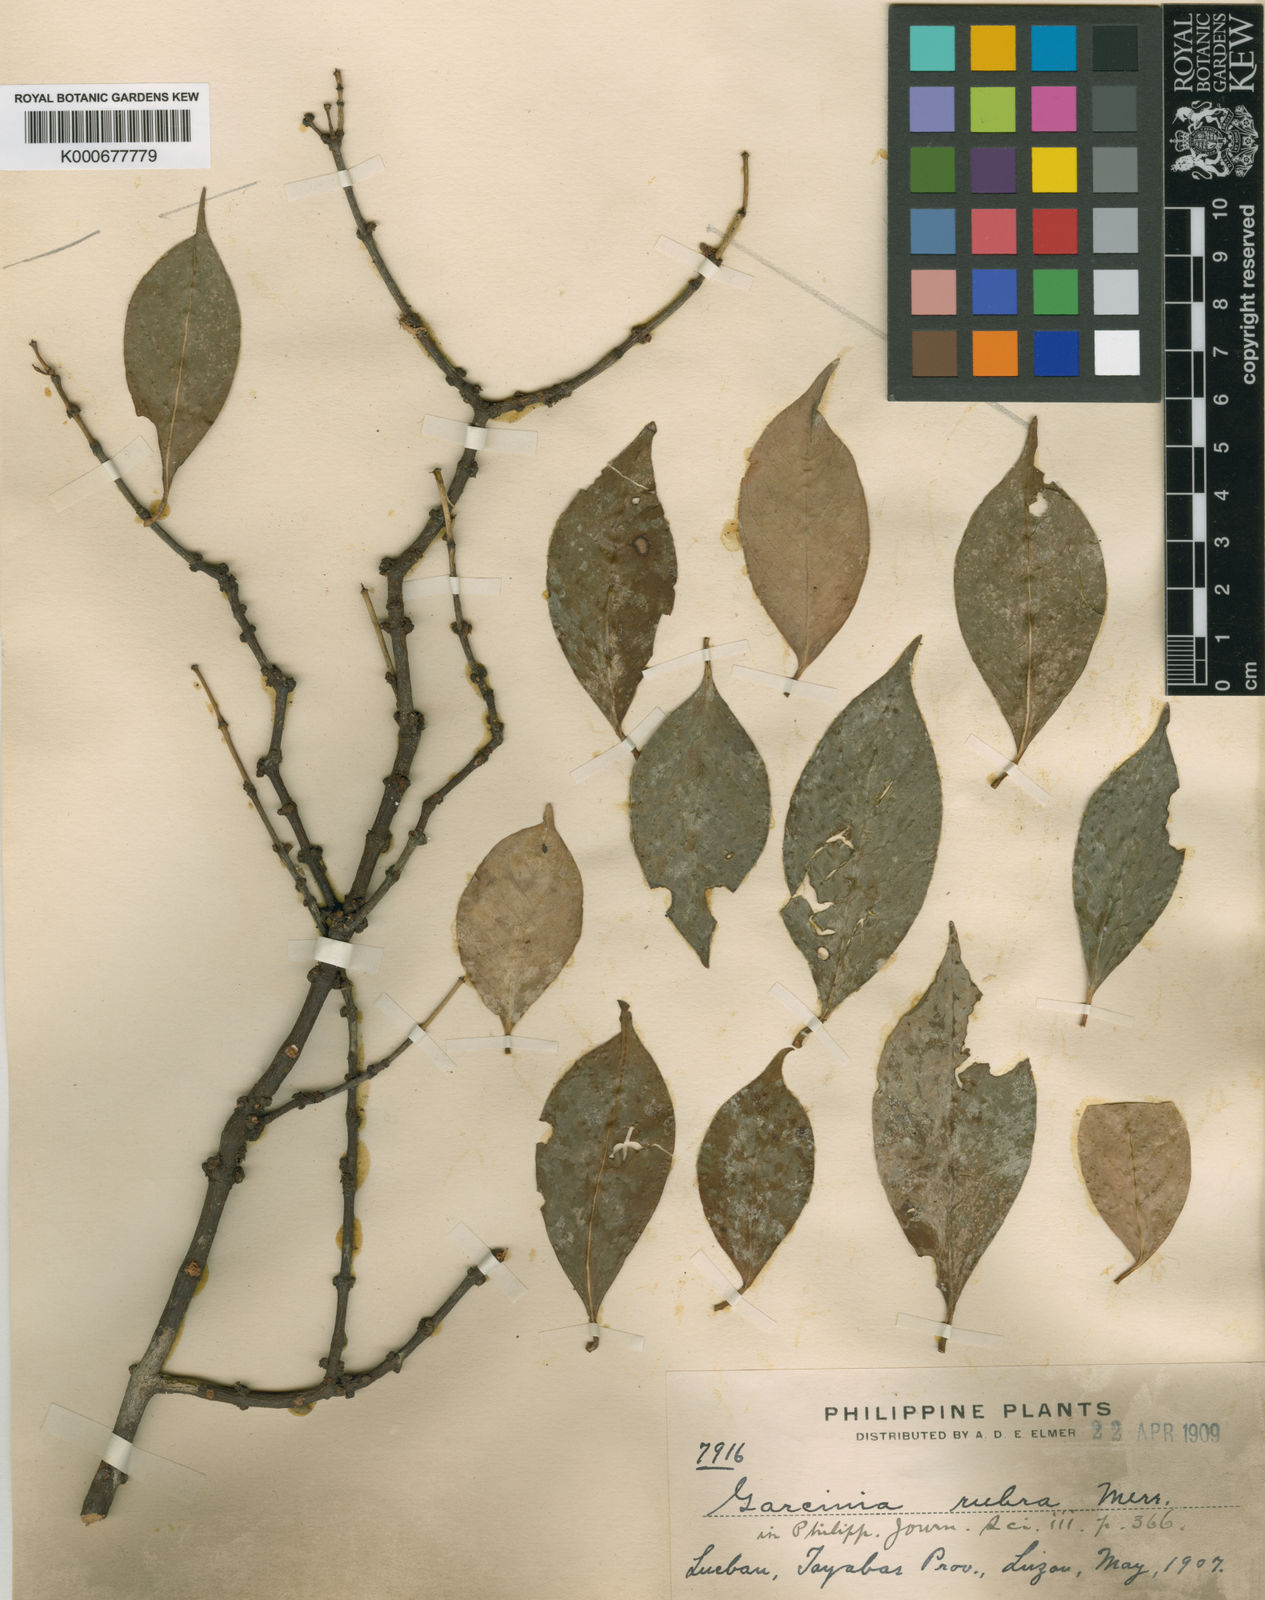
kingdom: Plantae
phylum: Tracheophyta
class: Magnoliopsida
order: Malpighiales
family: Clusiaceae
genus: Garcinia
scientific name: Garcinia rubra
